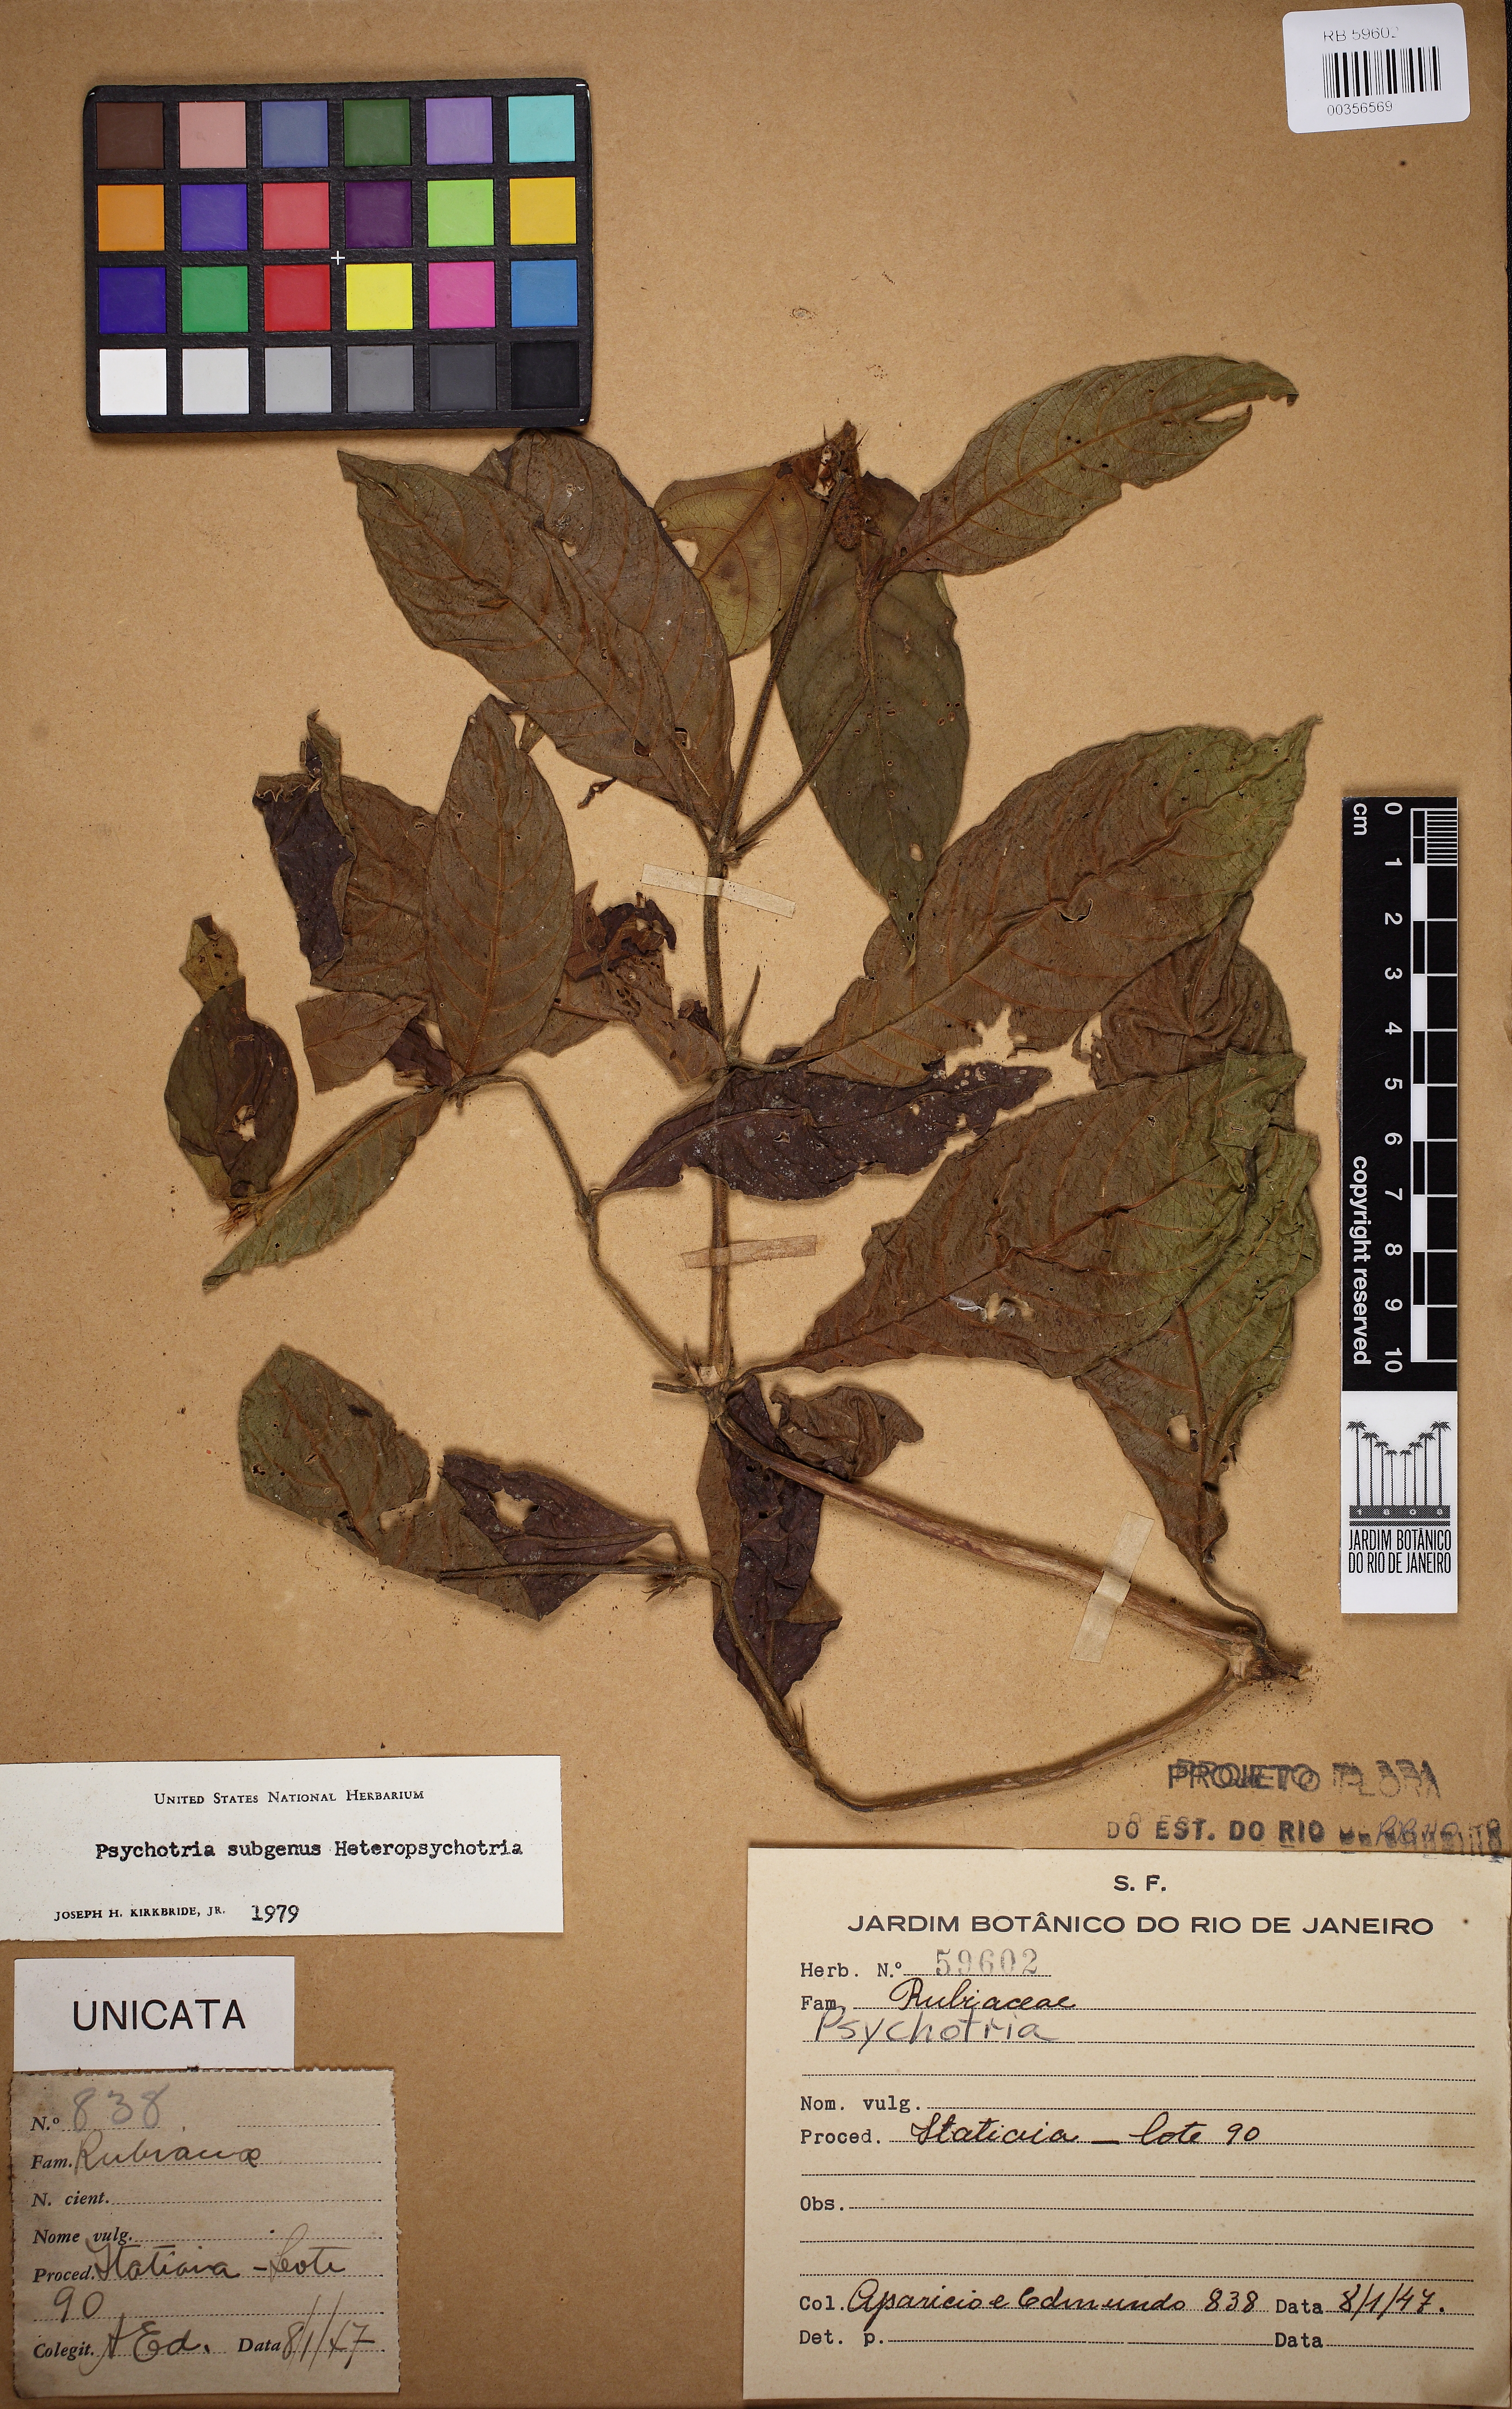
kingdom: Plantae
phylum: Tracheophyta
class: Magnoliopsida
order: Gentianales
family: Rubiaceae
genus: Psychotria
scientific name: Psychotria rhytidocarpa
